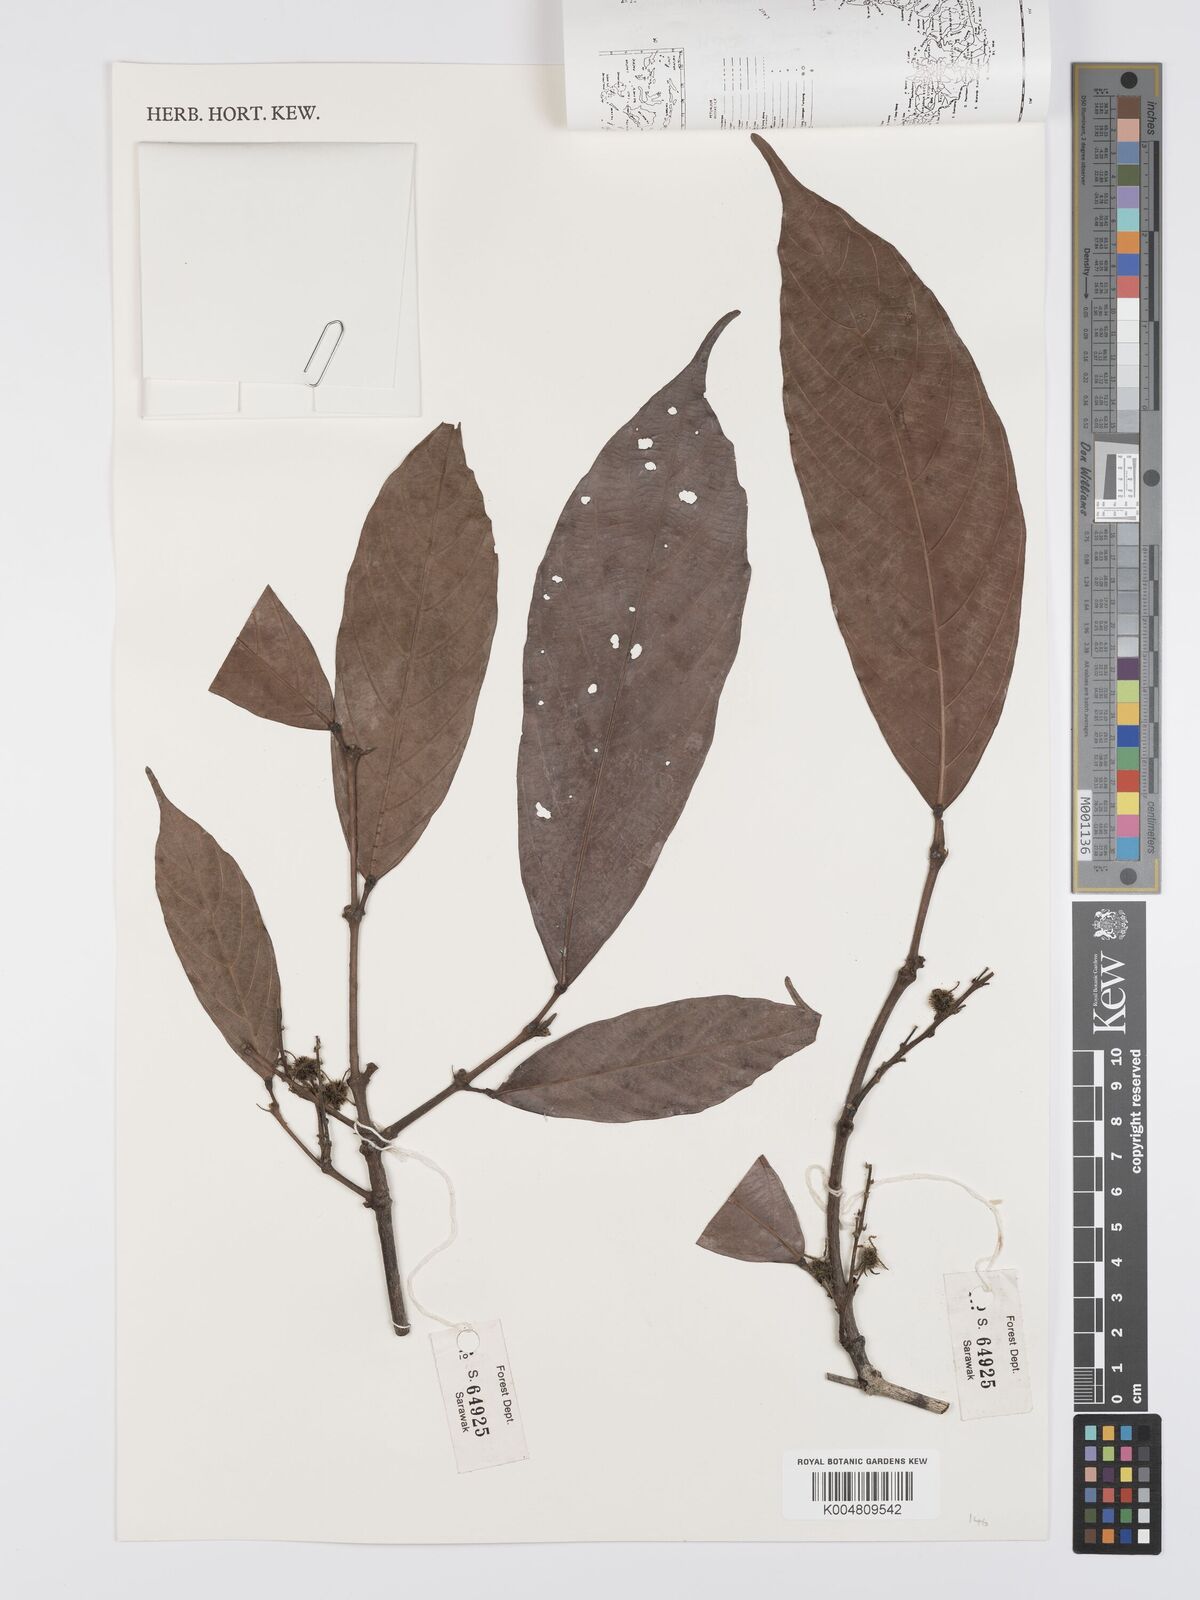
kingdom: Plantae
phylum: Tracheophyta
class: Magnoliopsida
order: Malpighiales
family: Euphorbiaceae
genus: Hancea
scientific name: Hancea penangensis
